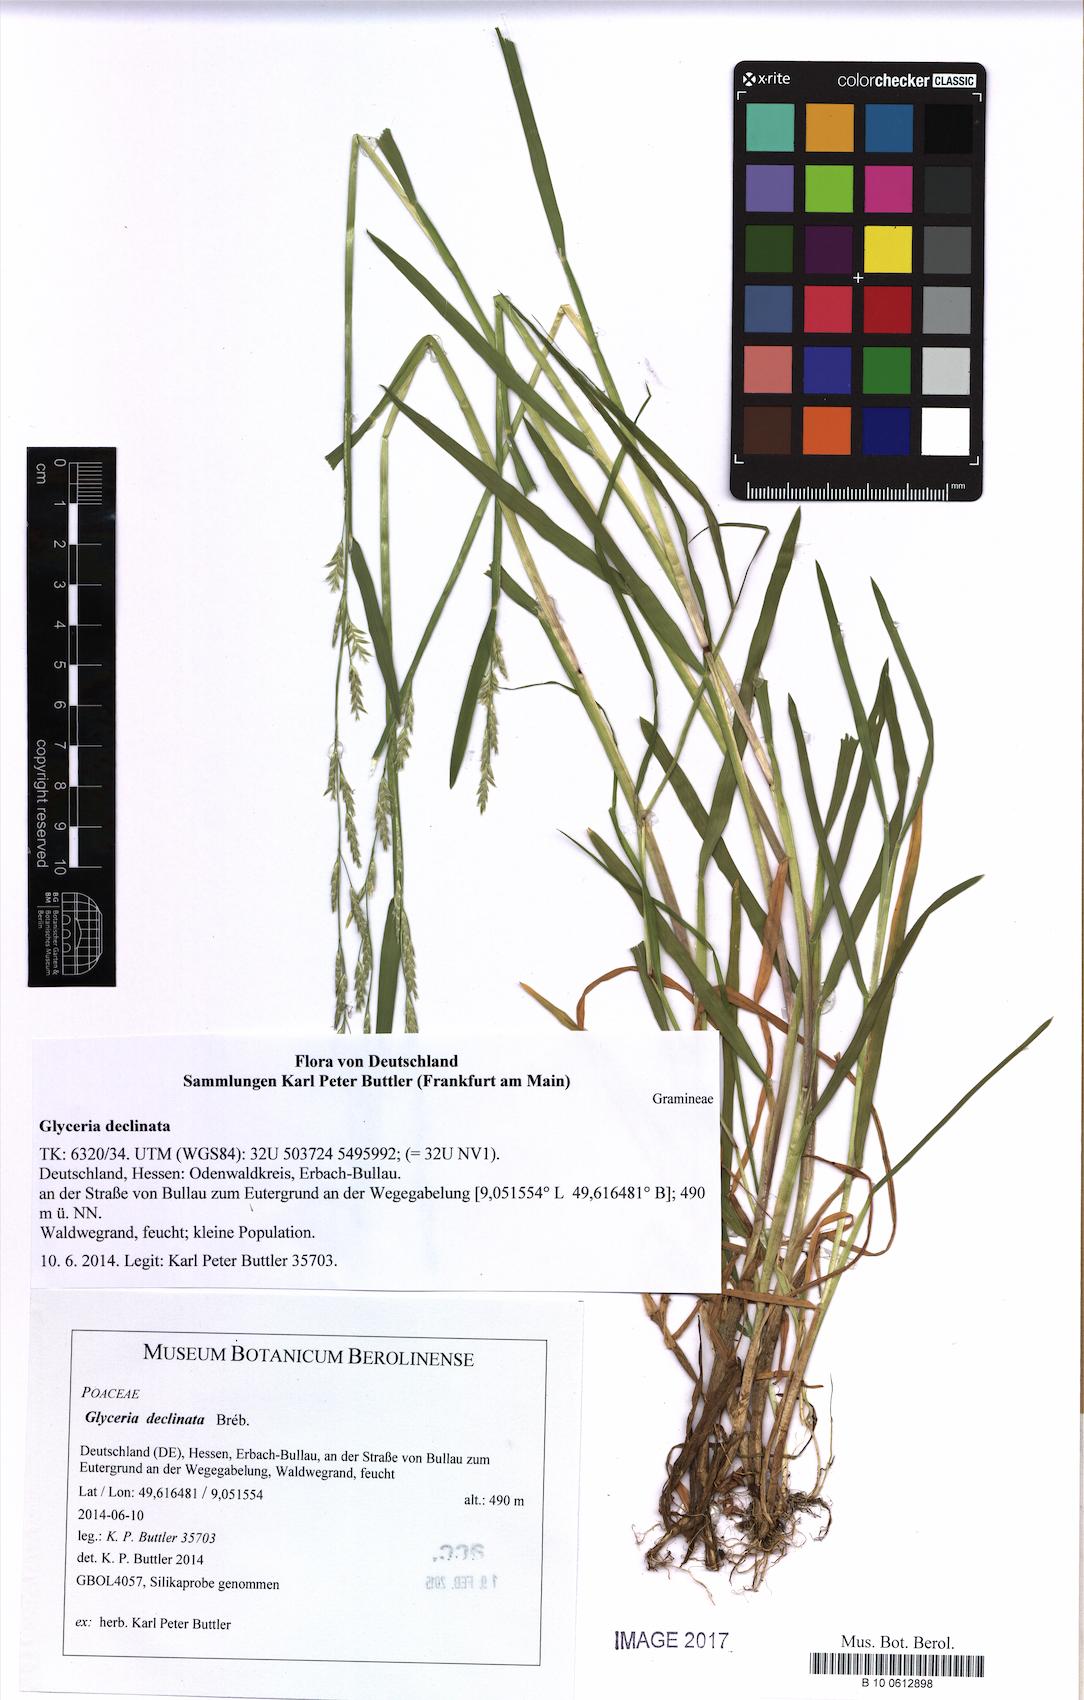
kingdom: Plantae
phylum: Tracheophyta
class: Liliopsida
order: Poales
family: Poaceae
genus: Glyceria
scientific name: Glyceria declinata
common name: Small sweet-grass
